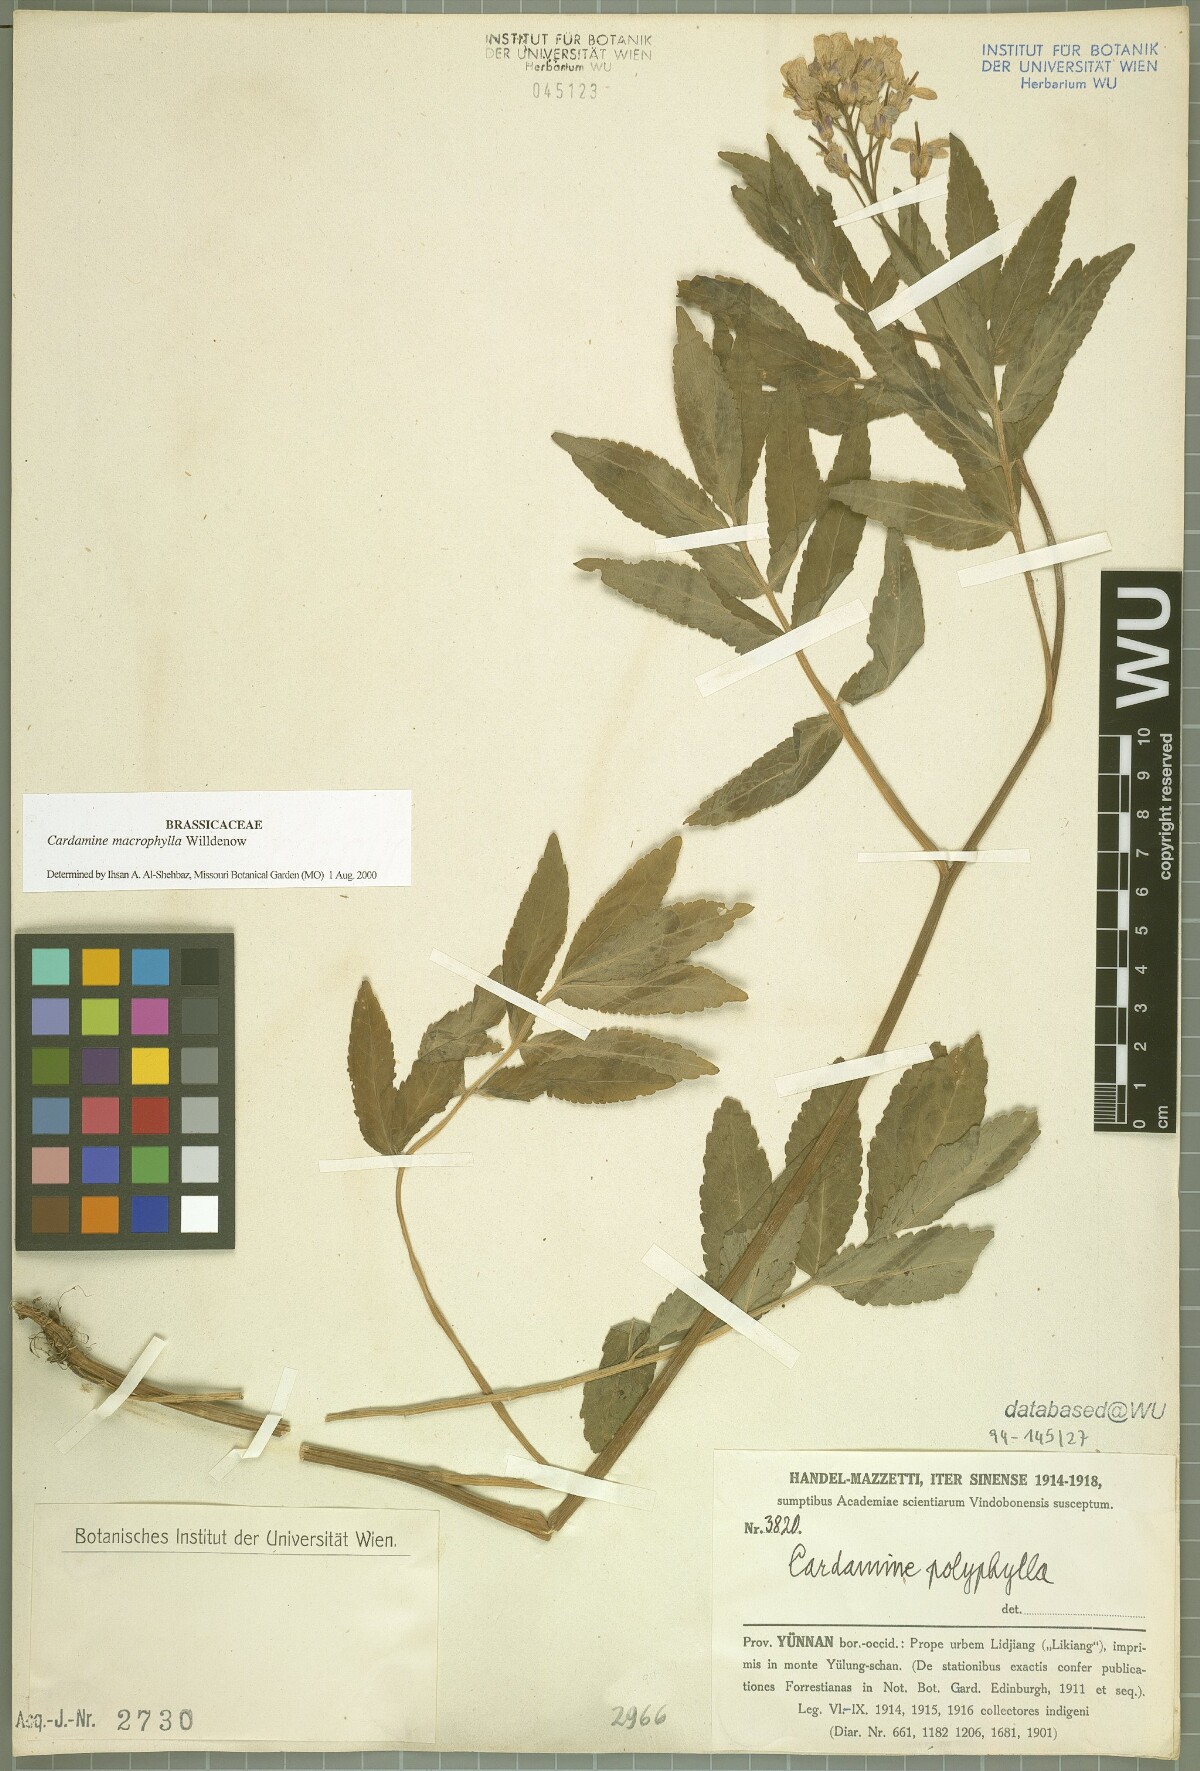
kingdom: Plantae
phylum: Tracheophyta
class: Magnoliopsida
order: Brassicales
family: Brassicaceae
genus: Cardamine
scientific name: Cardamine macrophylla
